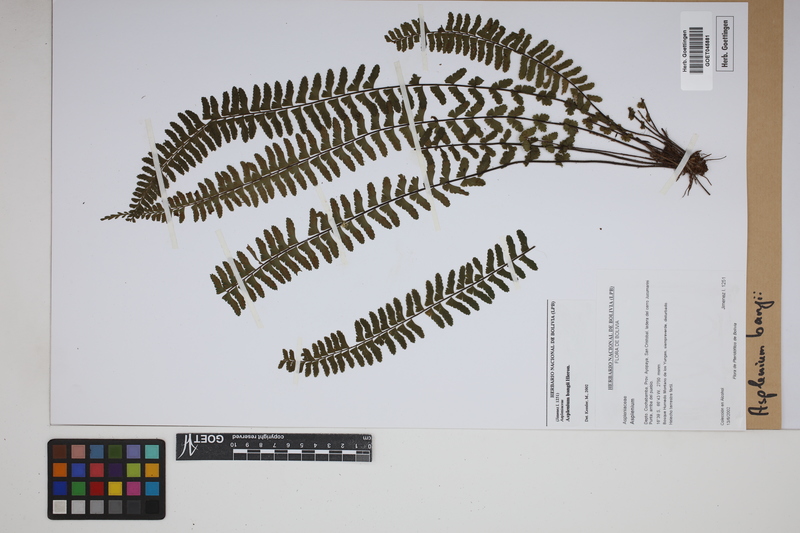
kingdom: Plantae
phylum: Tracheophyta
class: Polypodiopsida
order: Polypodiales
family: Aspleniaceae
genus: Asplenium
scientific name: Asplenium bangii
